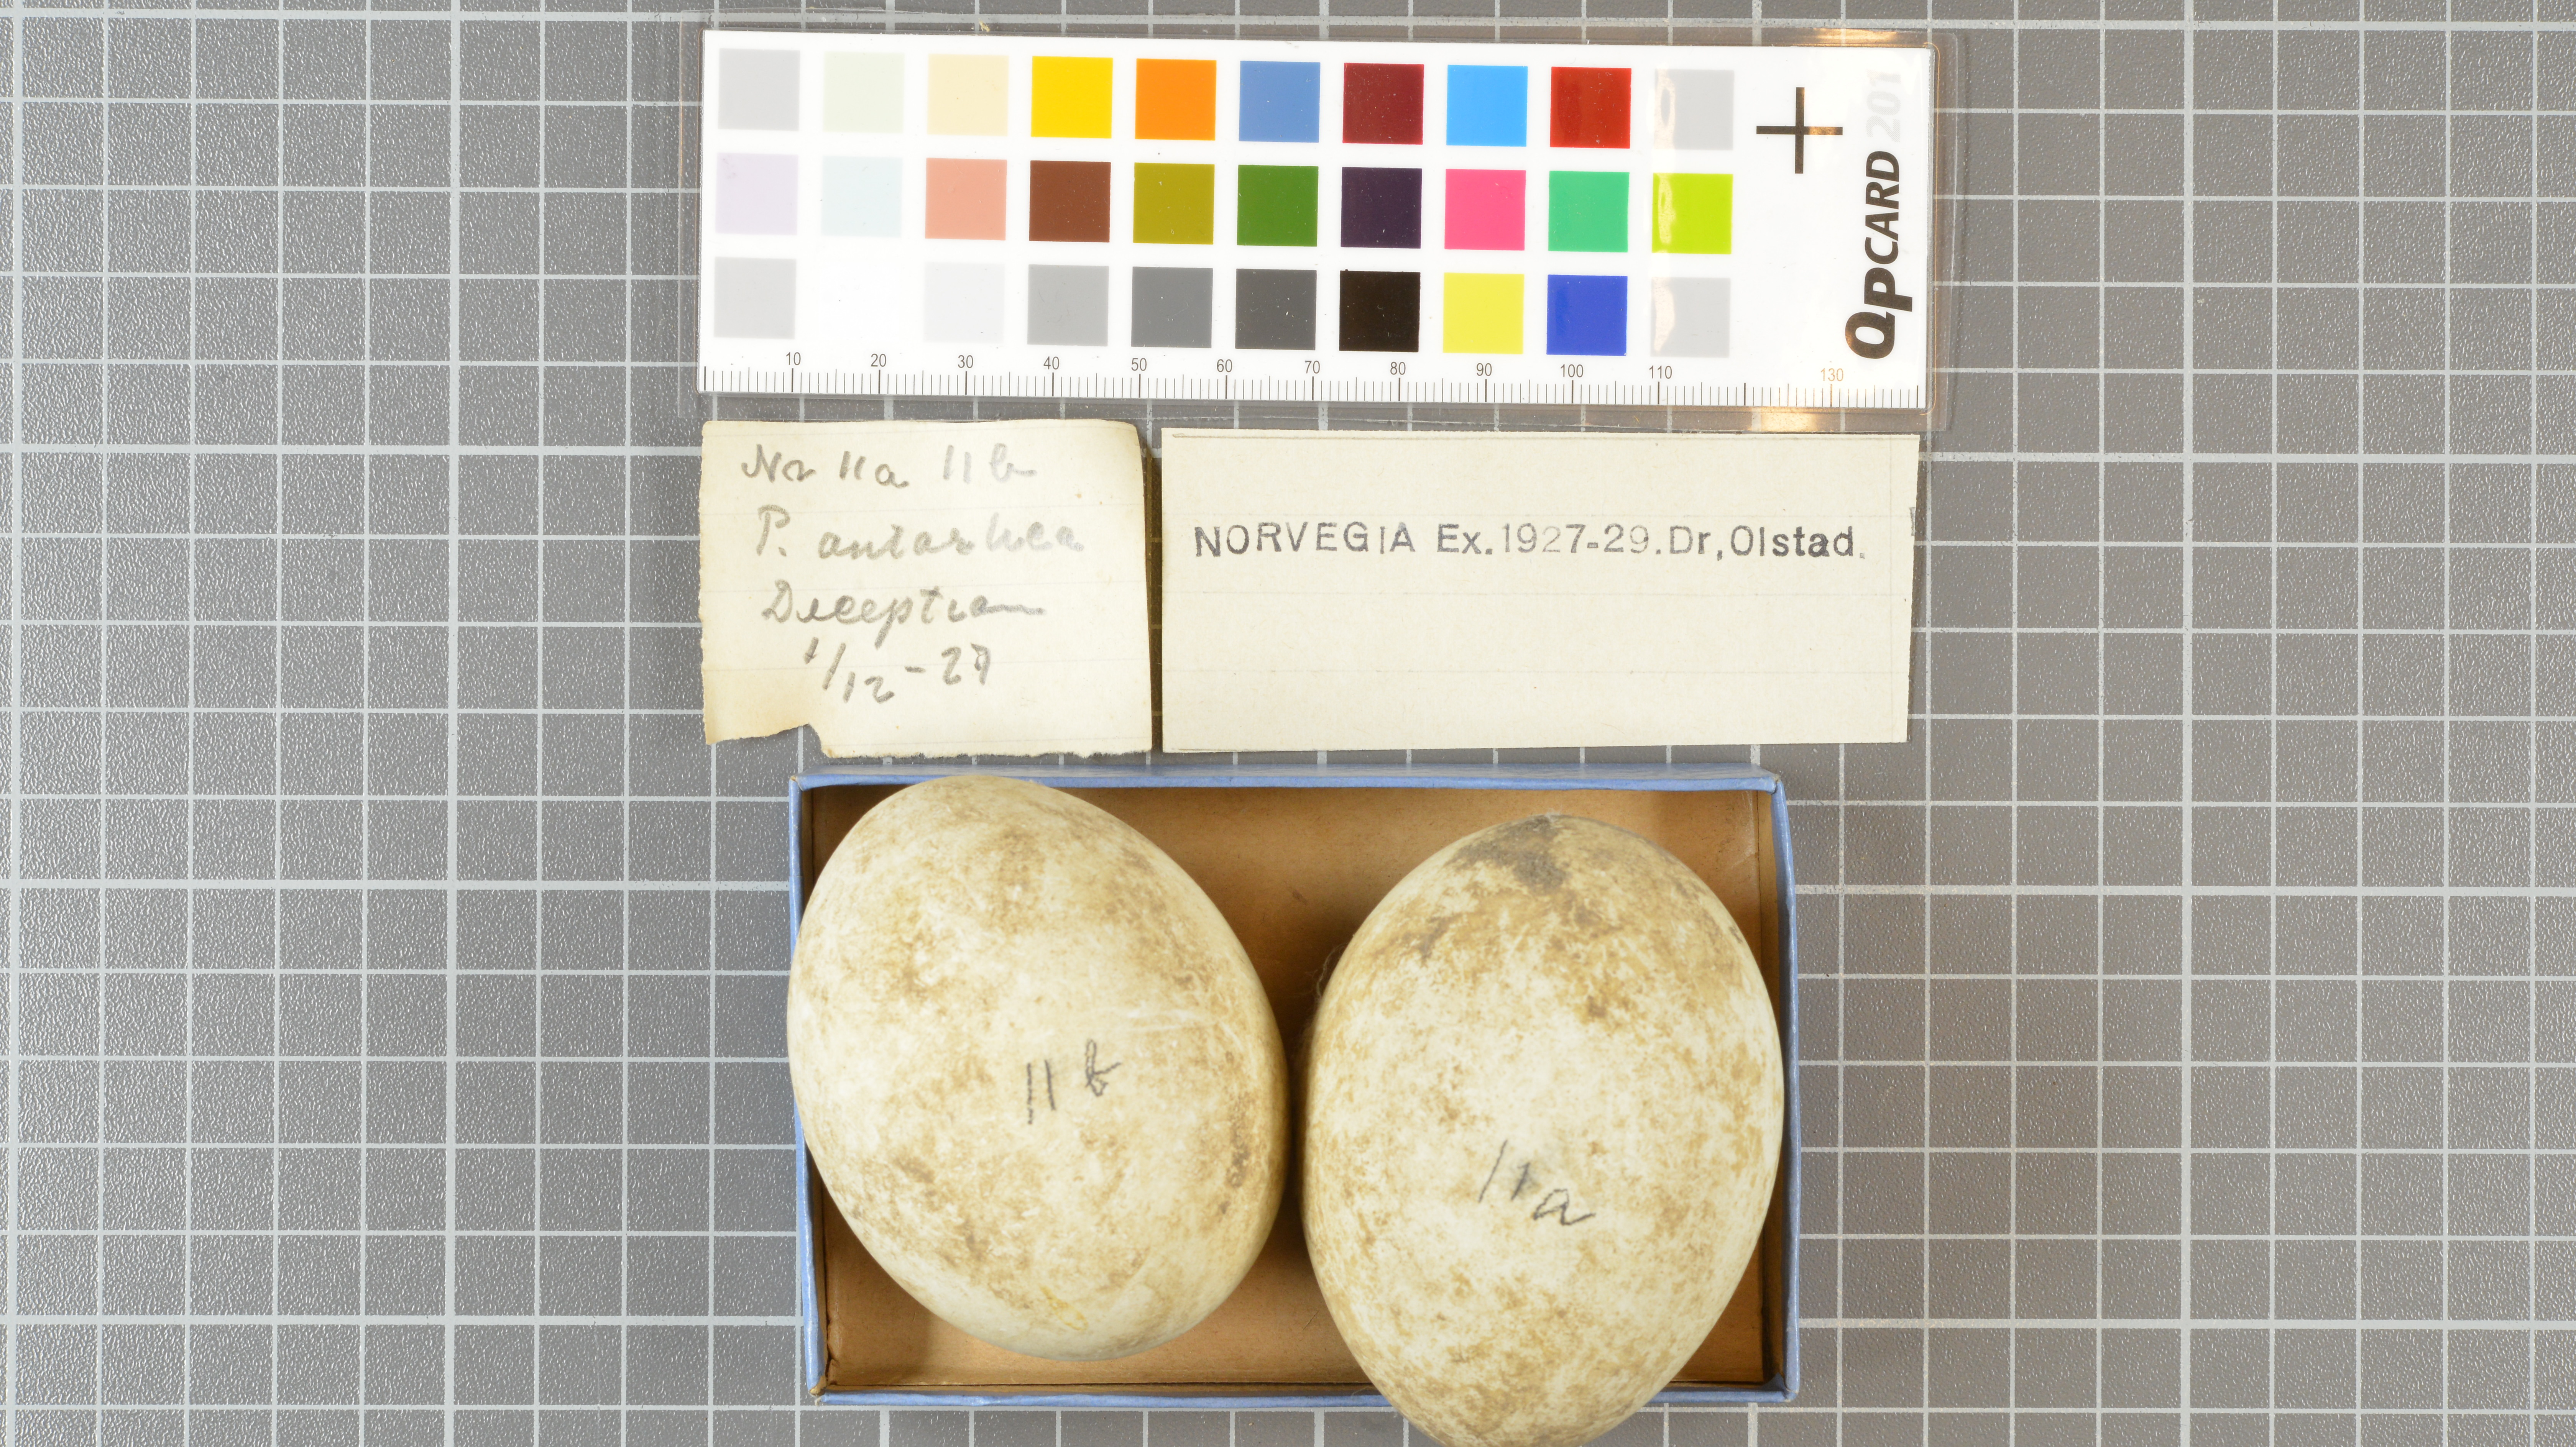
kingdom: Animalia
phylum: Chordata
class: Aves
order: Sphenisciformes
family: Spheniscidae
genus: Pygoscelis
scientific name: Pygoscelis antarcticus
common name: Chinstrap penguin
